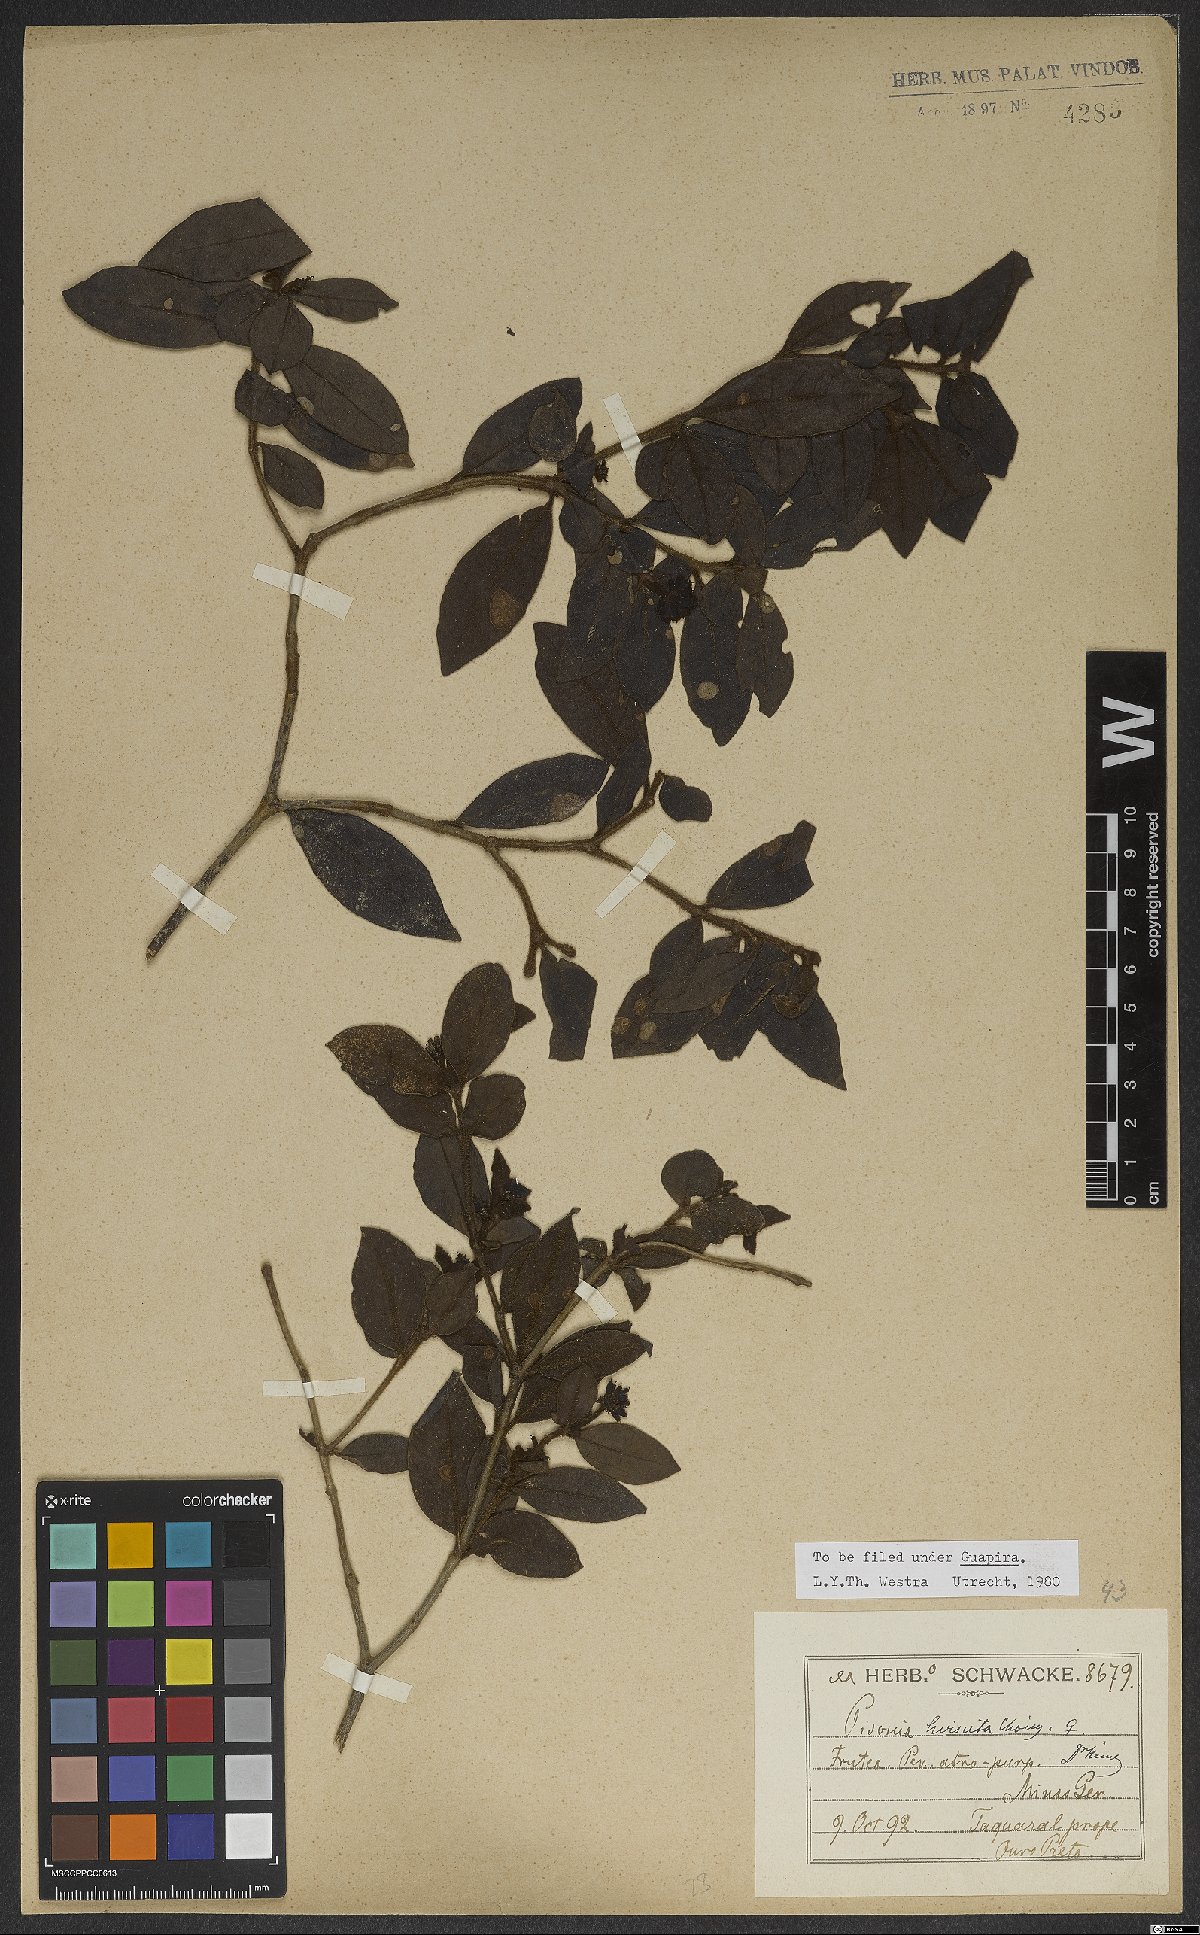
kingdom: Plantae
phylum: Tracheophyta
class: Magnoliopsida
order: Caryophyllales
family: Nyctaginaceae
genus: Guapira
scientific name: Guapira hirsuta
